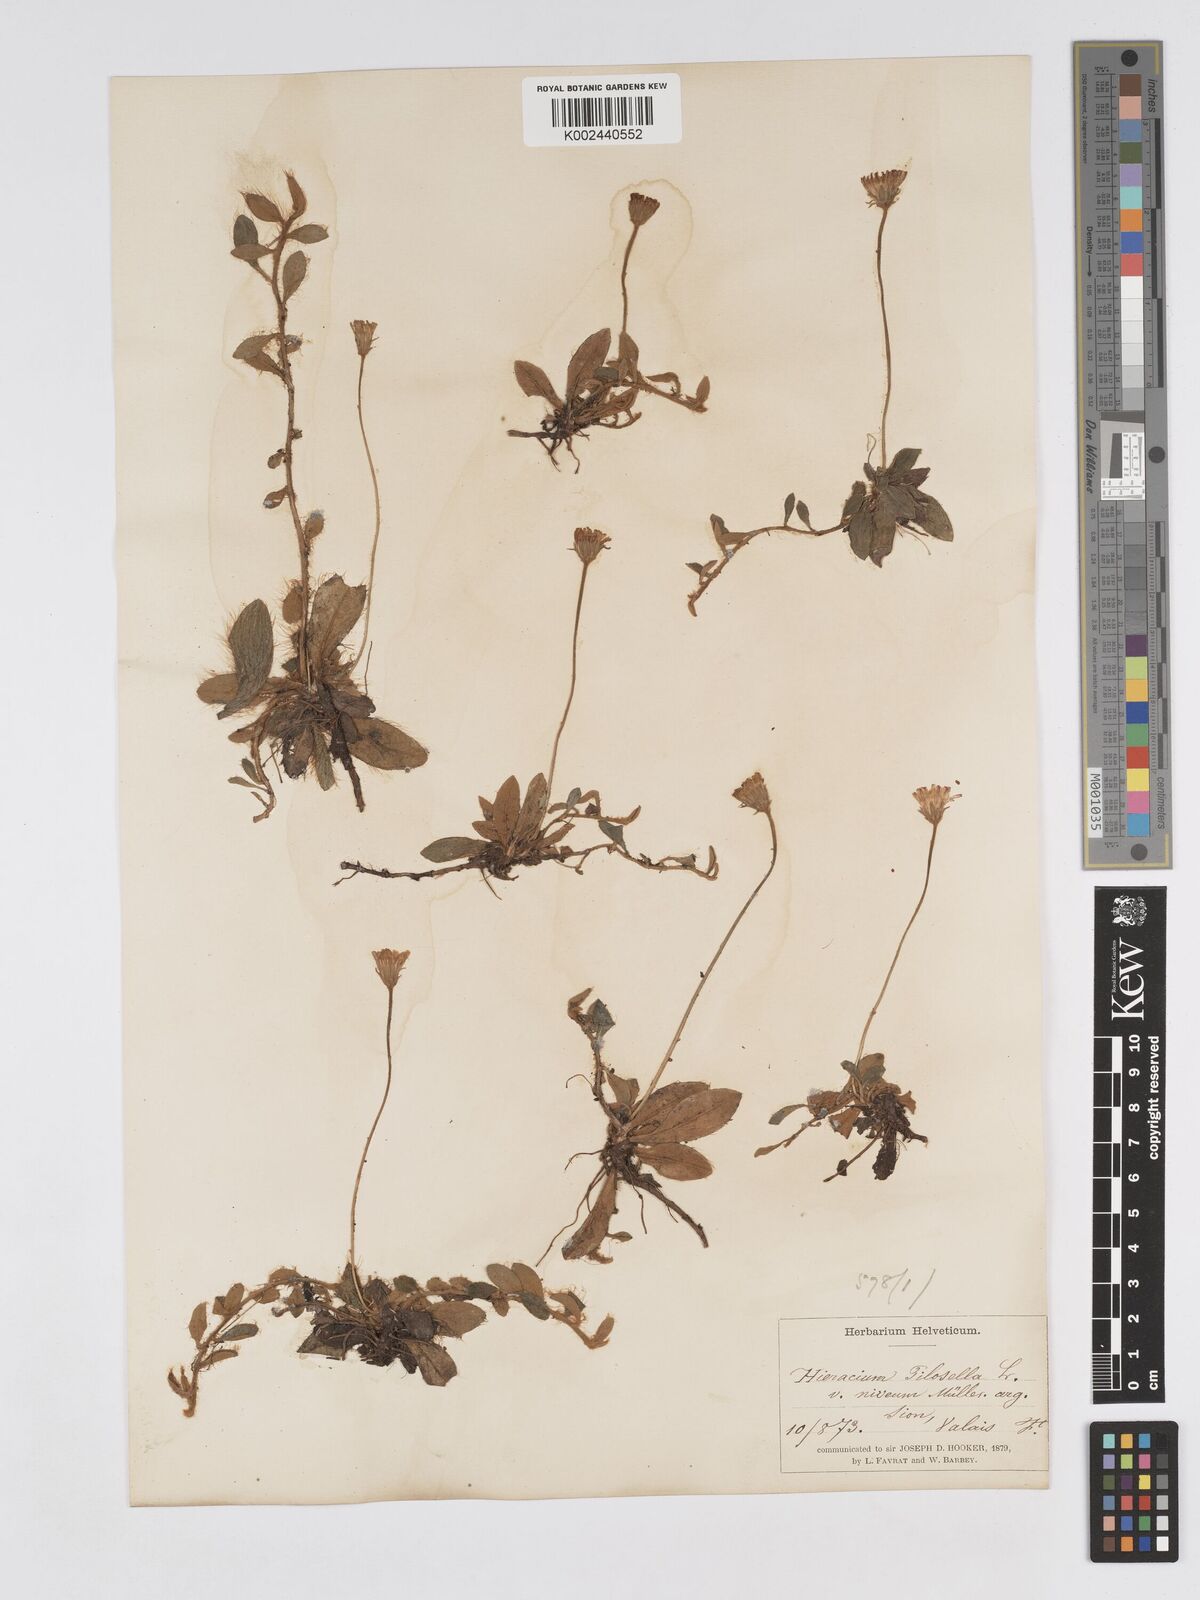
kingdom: Plantae
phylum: Tracheophyta
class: Magnoliopsida
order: Asterales
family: Asteraceae
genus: Pilosella
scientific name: Pilosella tardans
